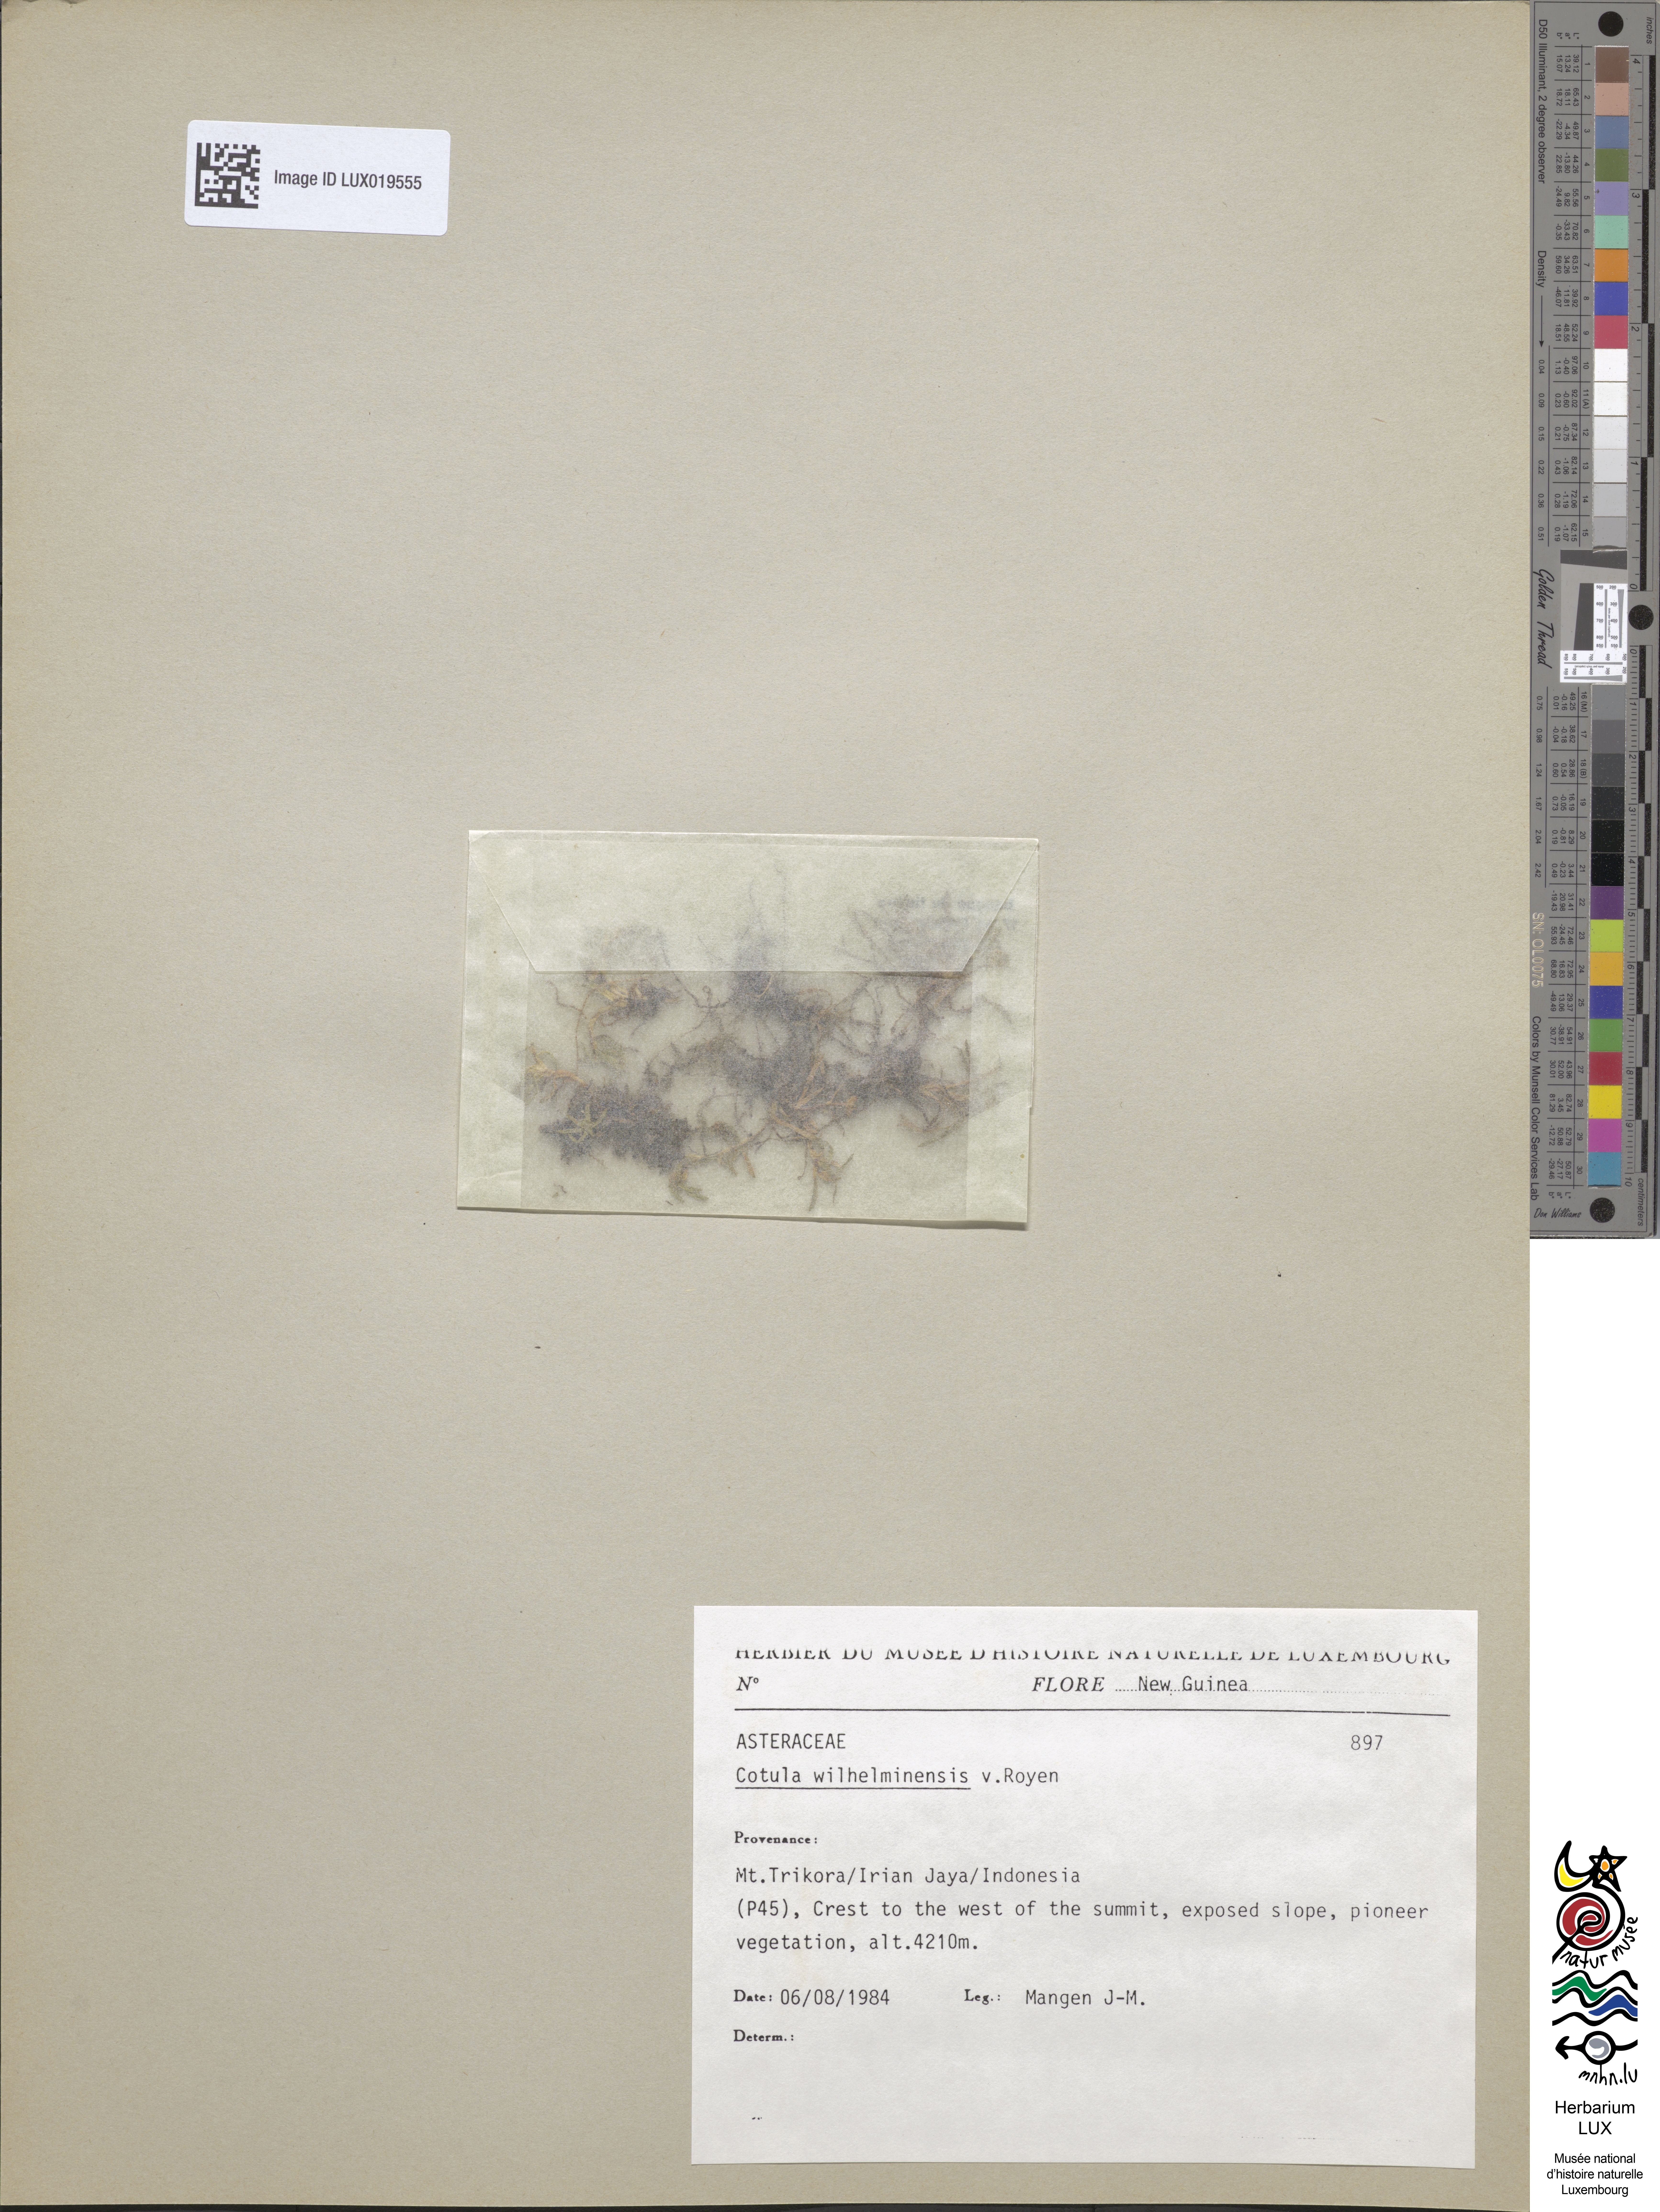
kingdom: Plantae
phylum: Tracheophyta
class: Magnoliopsida
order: Asterales
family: Asteraceae
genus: Leptinella
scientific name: Leptinella wilhelminensis
